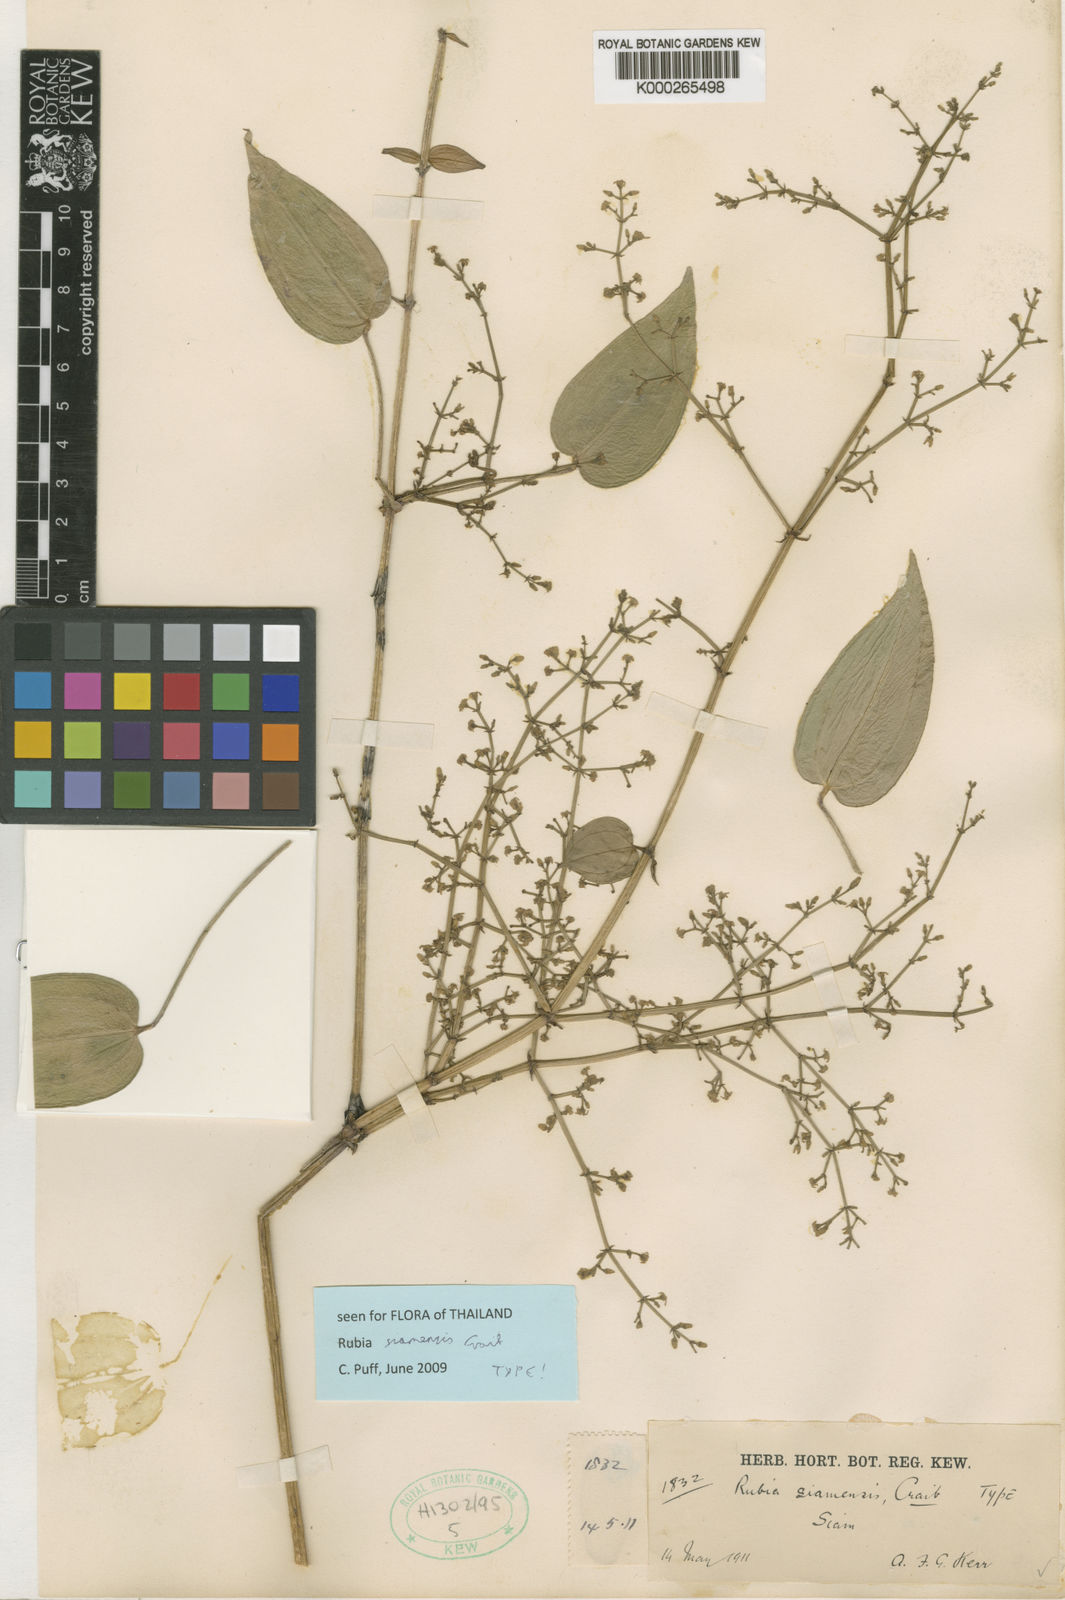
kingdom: Plantae
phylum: Tracheophyta
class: Magnoliopsida
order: Gentianales
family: Rubiaceae
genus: Rubia
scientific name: Rubia siamensis
